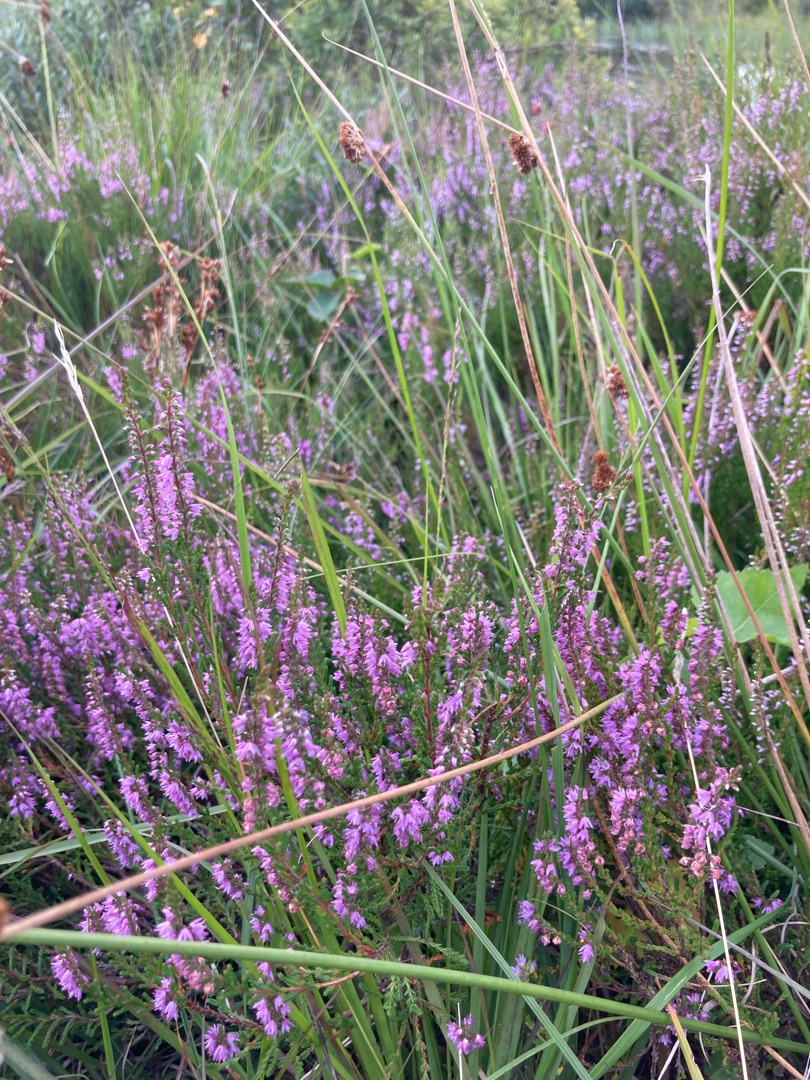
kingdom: Plantae
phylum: Tracheophyta
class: Magnoliopsida
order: Ericales
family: Ericaceae
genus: Calluna
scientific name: Calluna vulgaris
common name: Hedelyng
